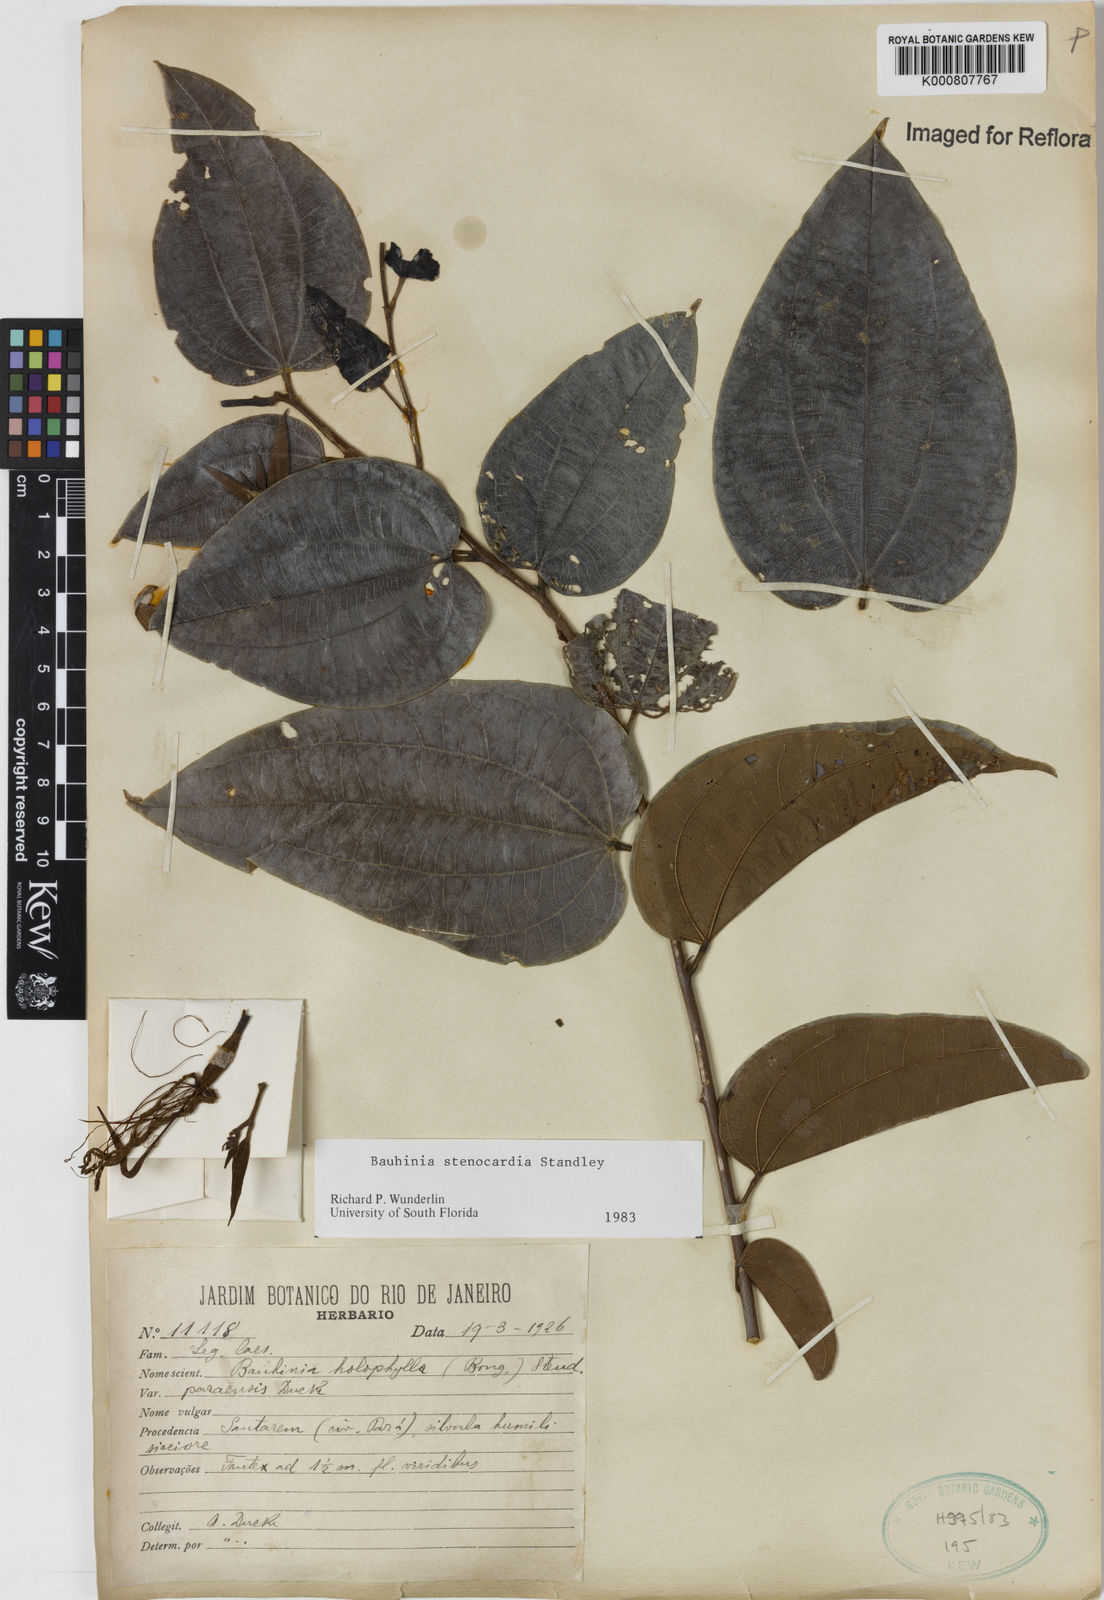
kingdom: Plantae
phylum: Tracheophyta
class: Magnoliopsida
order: Fabales
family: Fabaceae
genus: Bauhinia
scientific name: Bauhinia longicuspis
